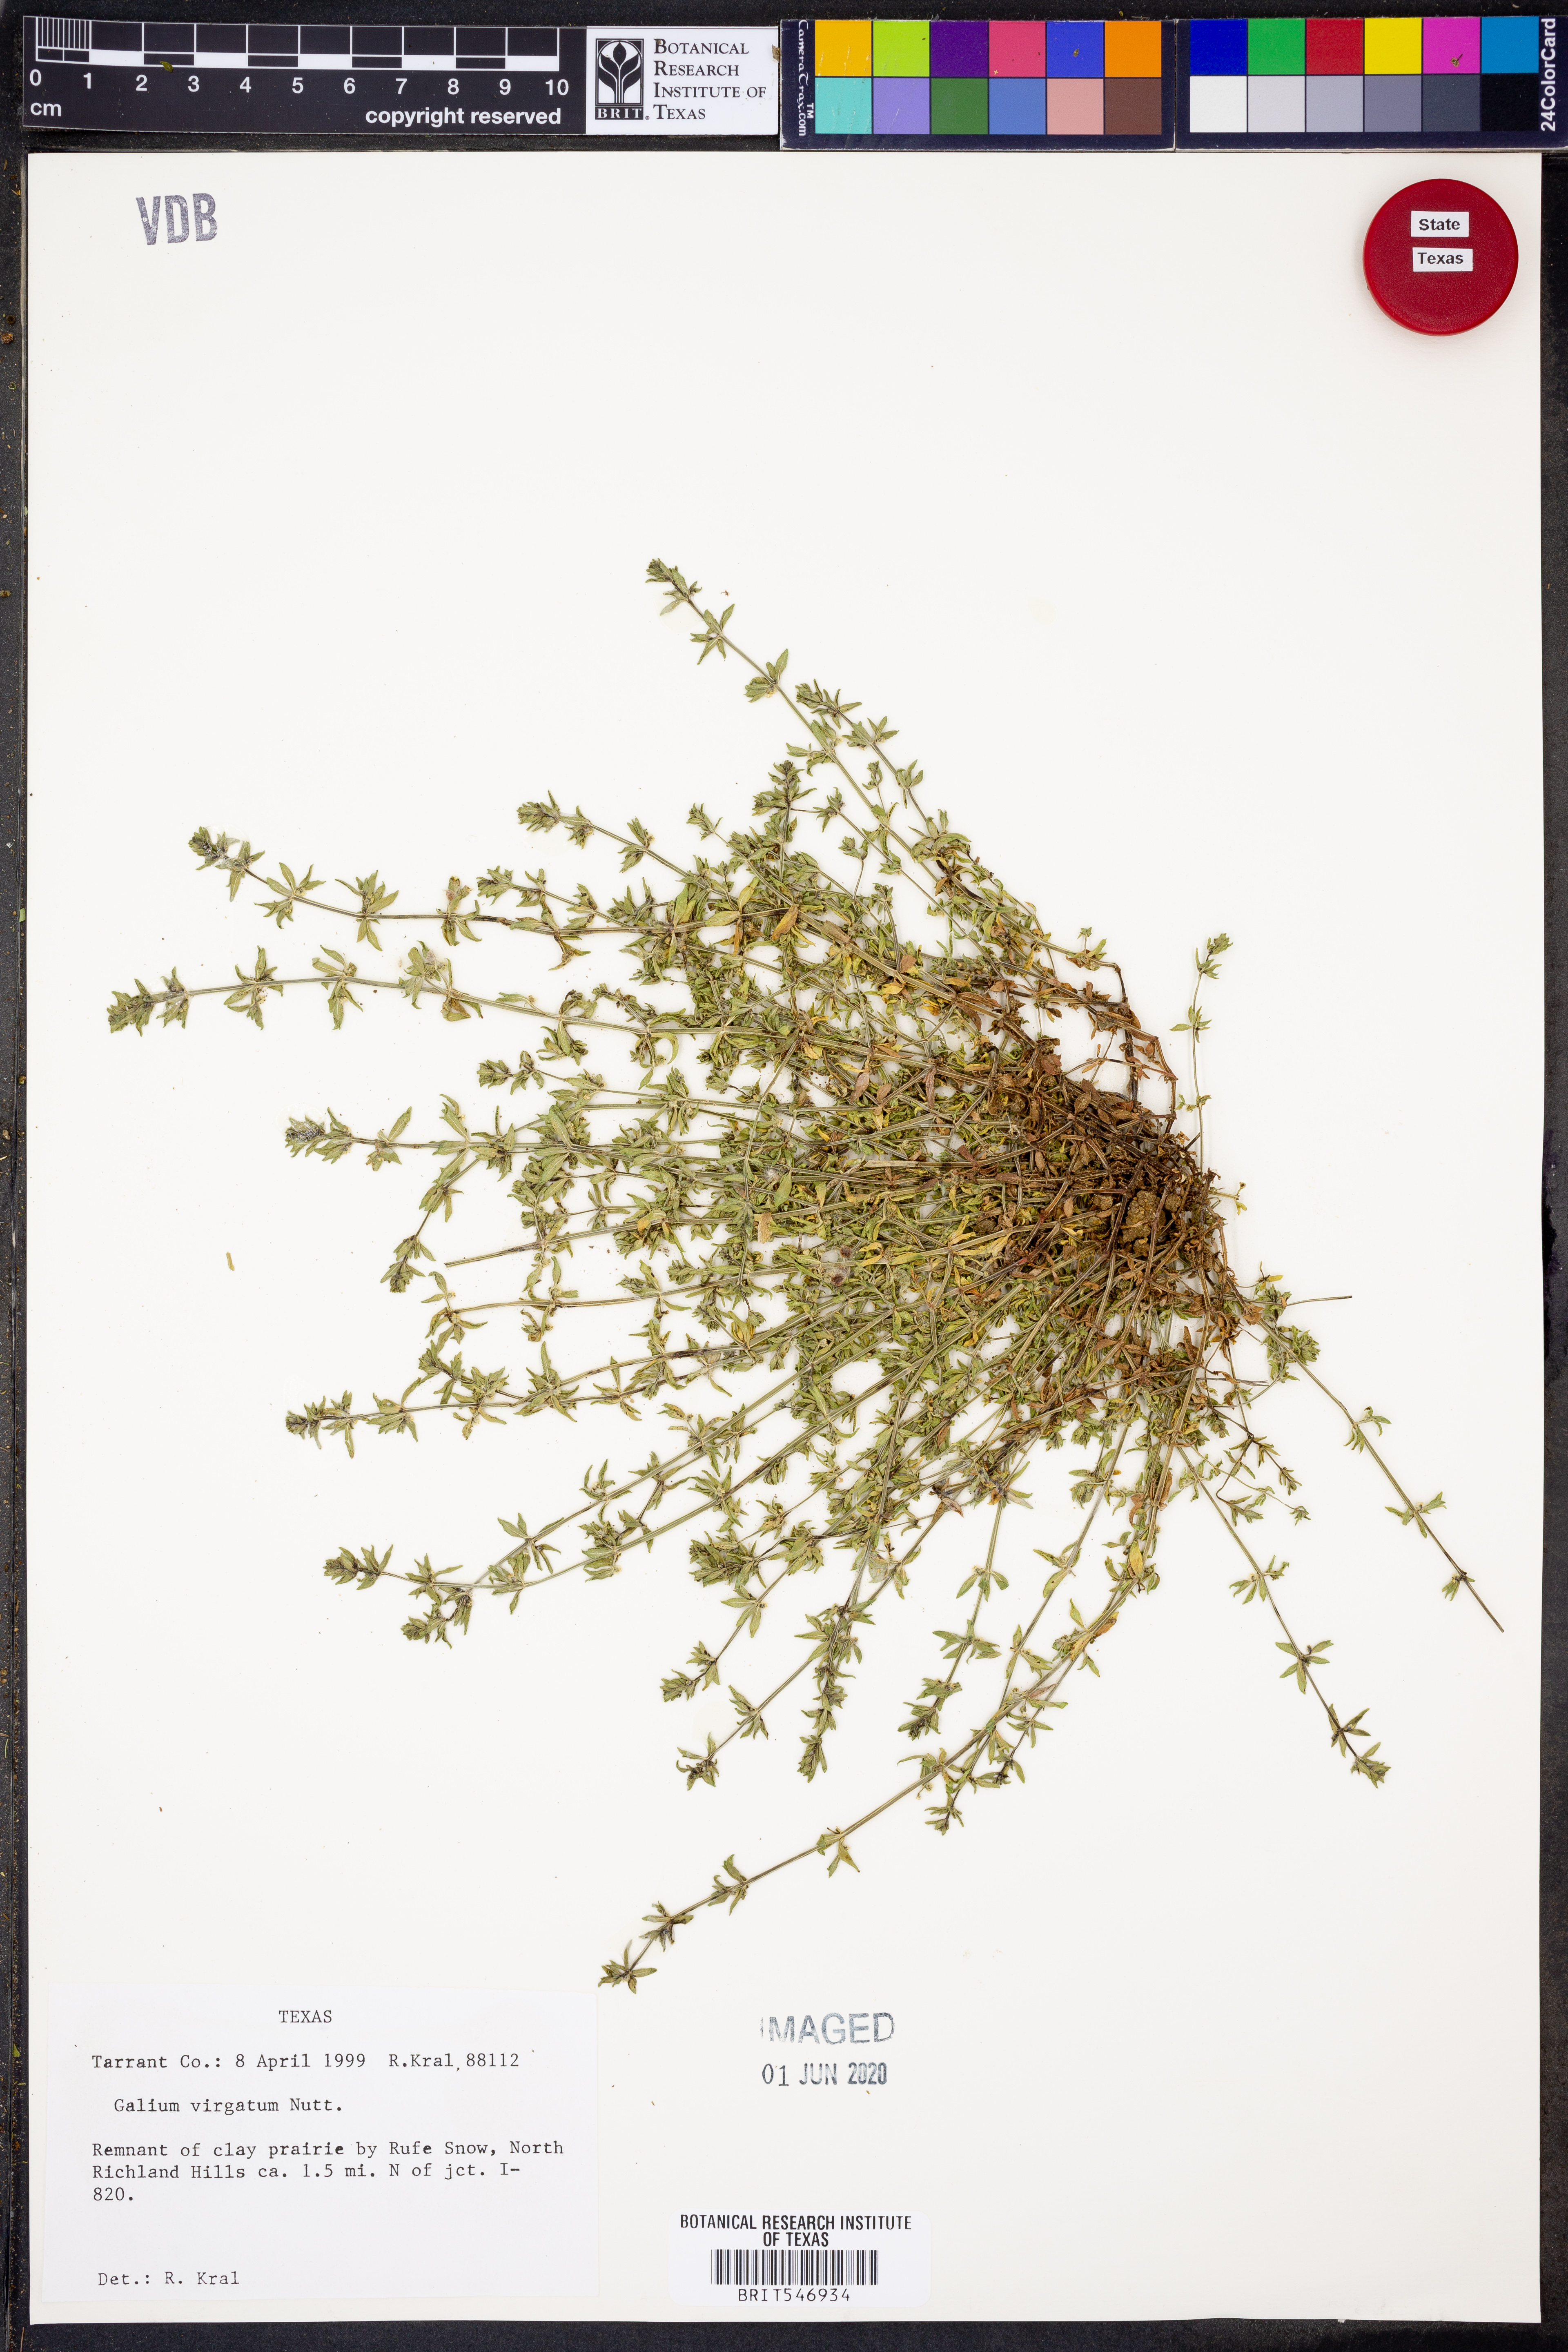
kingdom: Plantae
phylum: Tracheophyta
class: Magnoliopsida
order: Gentianales
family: Rubiaceae
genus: Galium
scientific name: Galium virgatum
